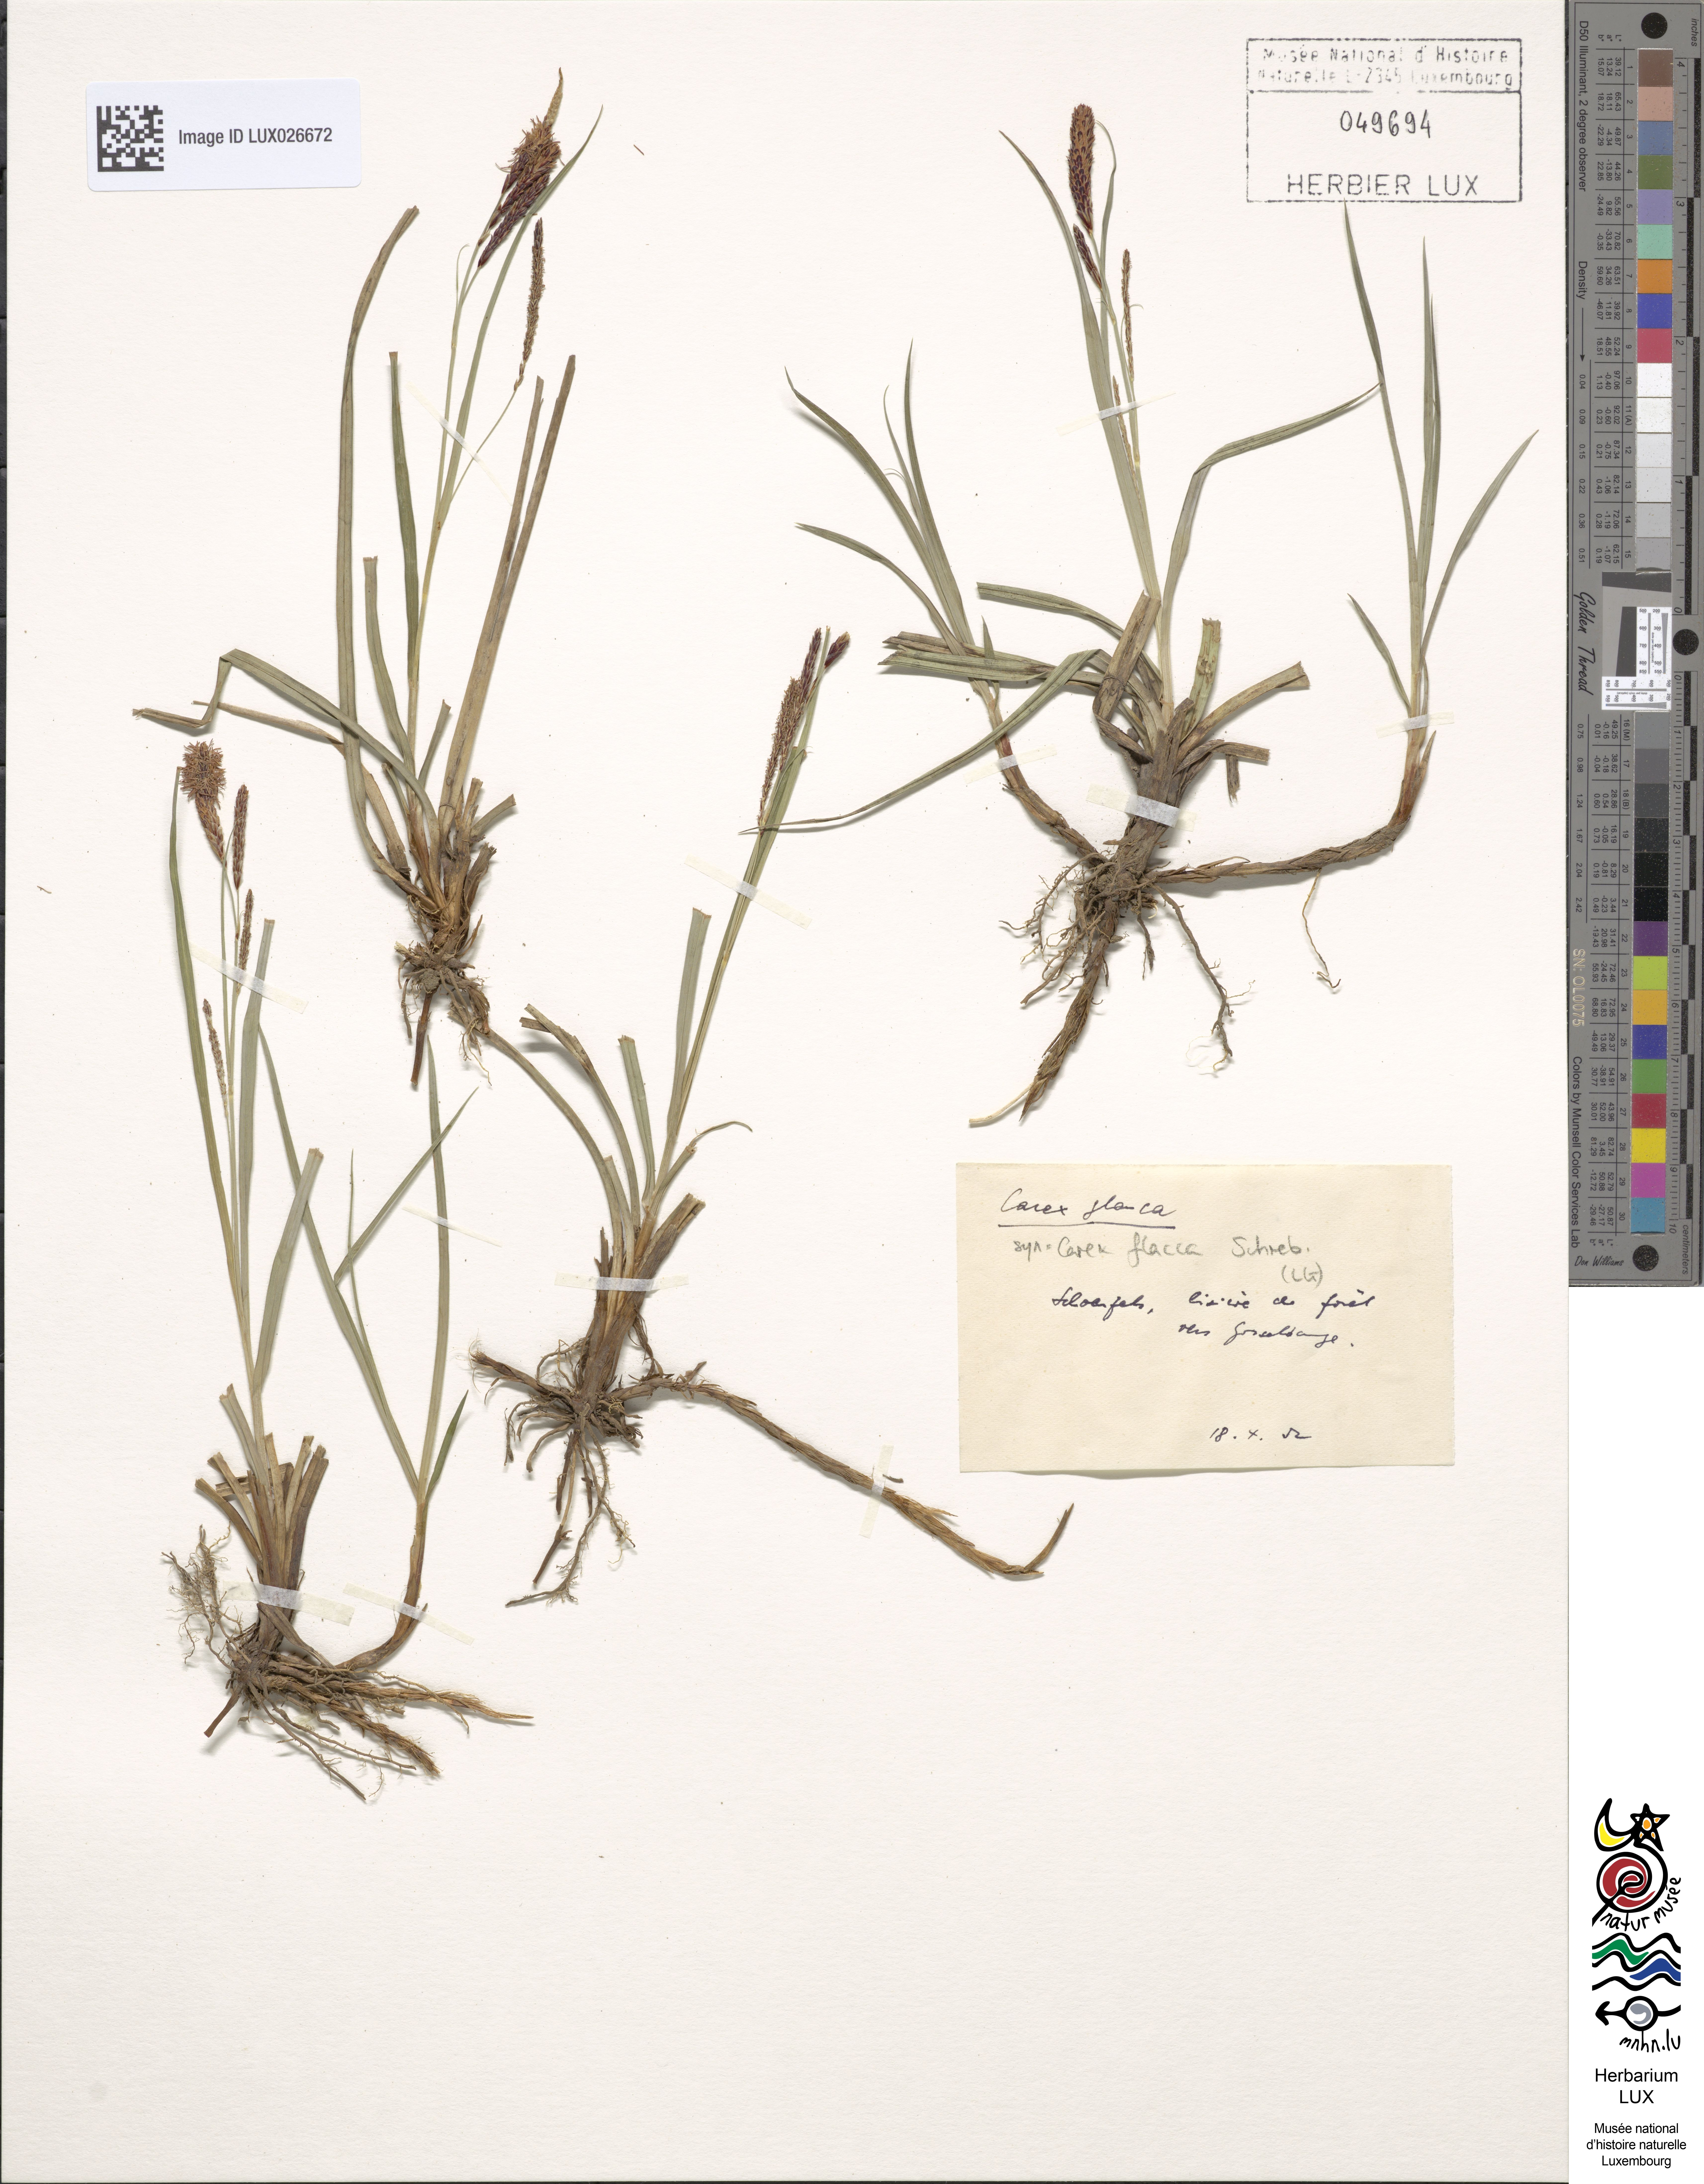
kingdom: Plantae
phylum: Tracheophyta
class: Liliopsida
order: Poales
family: Cyperaceae
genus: Carex
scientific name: Carex flacca
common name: Glaucous sedge
